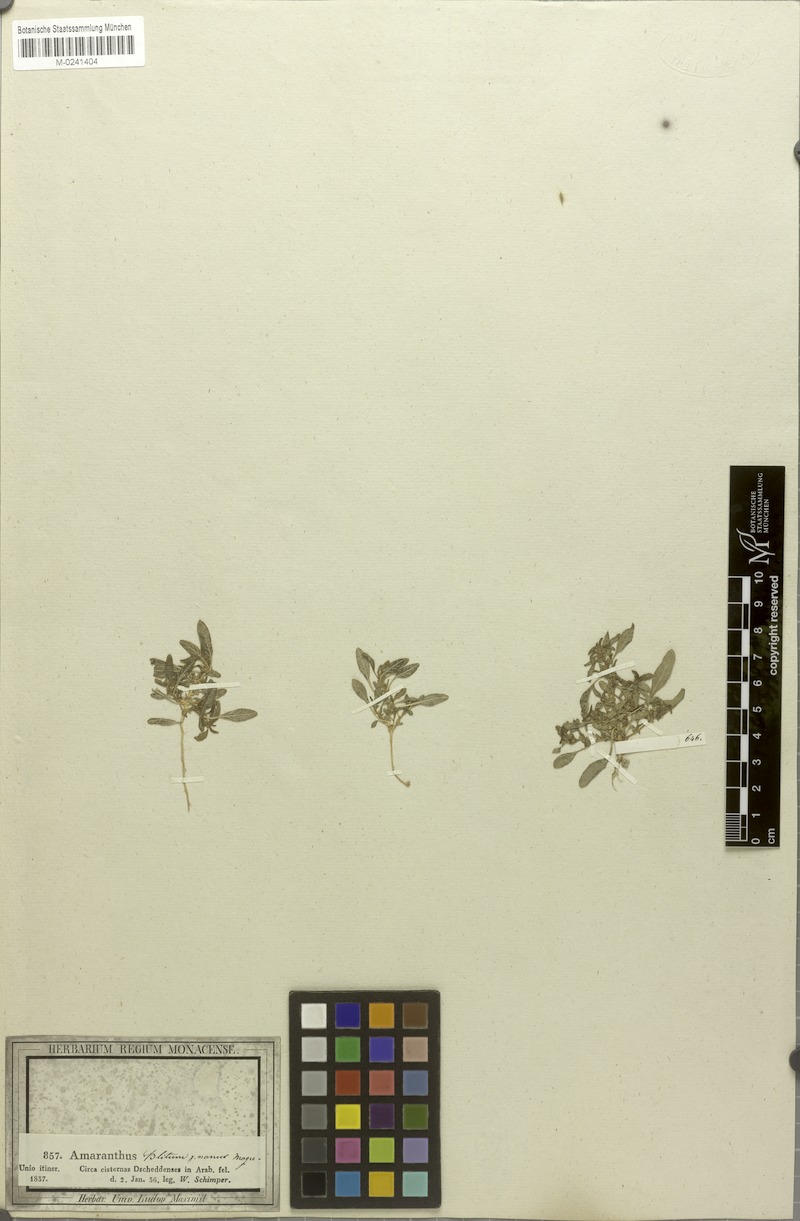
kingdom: Plantae
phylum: Tracheophyta
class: Magnoliopsida
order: Caryophyllales
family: Amaranthaceae
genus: Amaranthus
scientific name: Amaranthus graecizans
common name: Mediterranean amaranth
